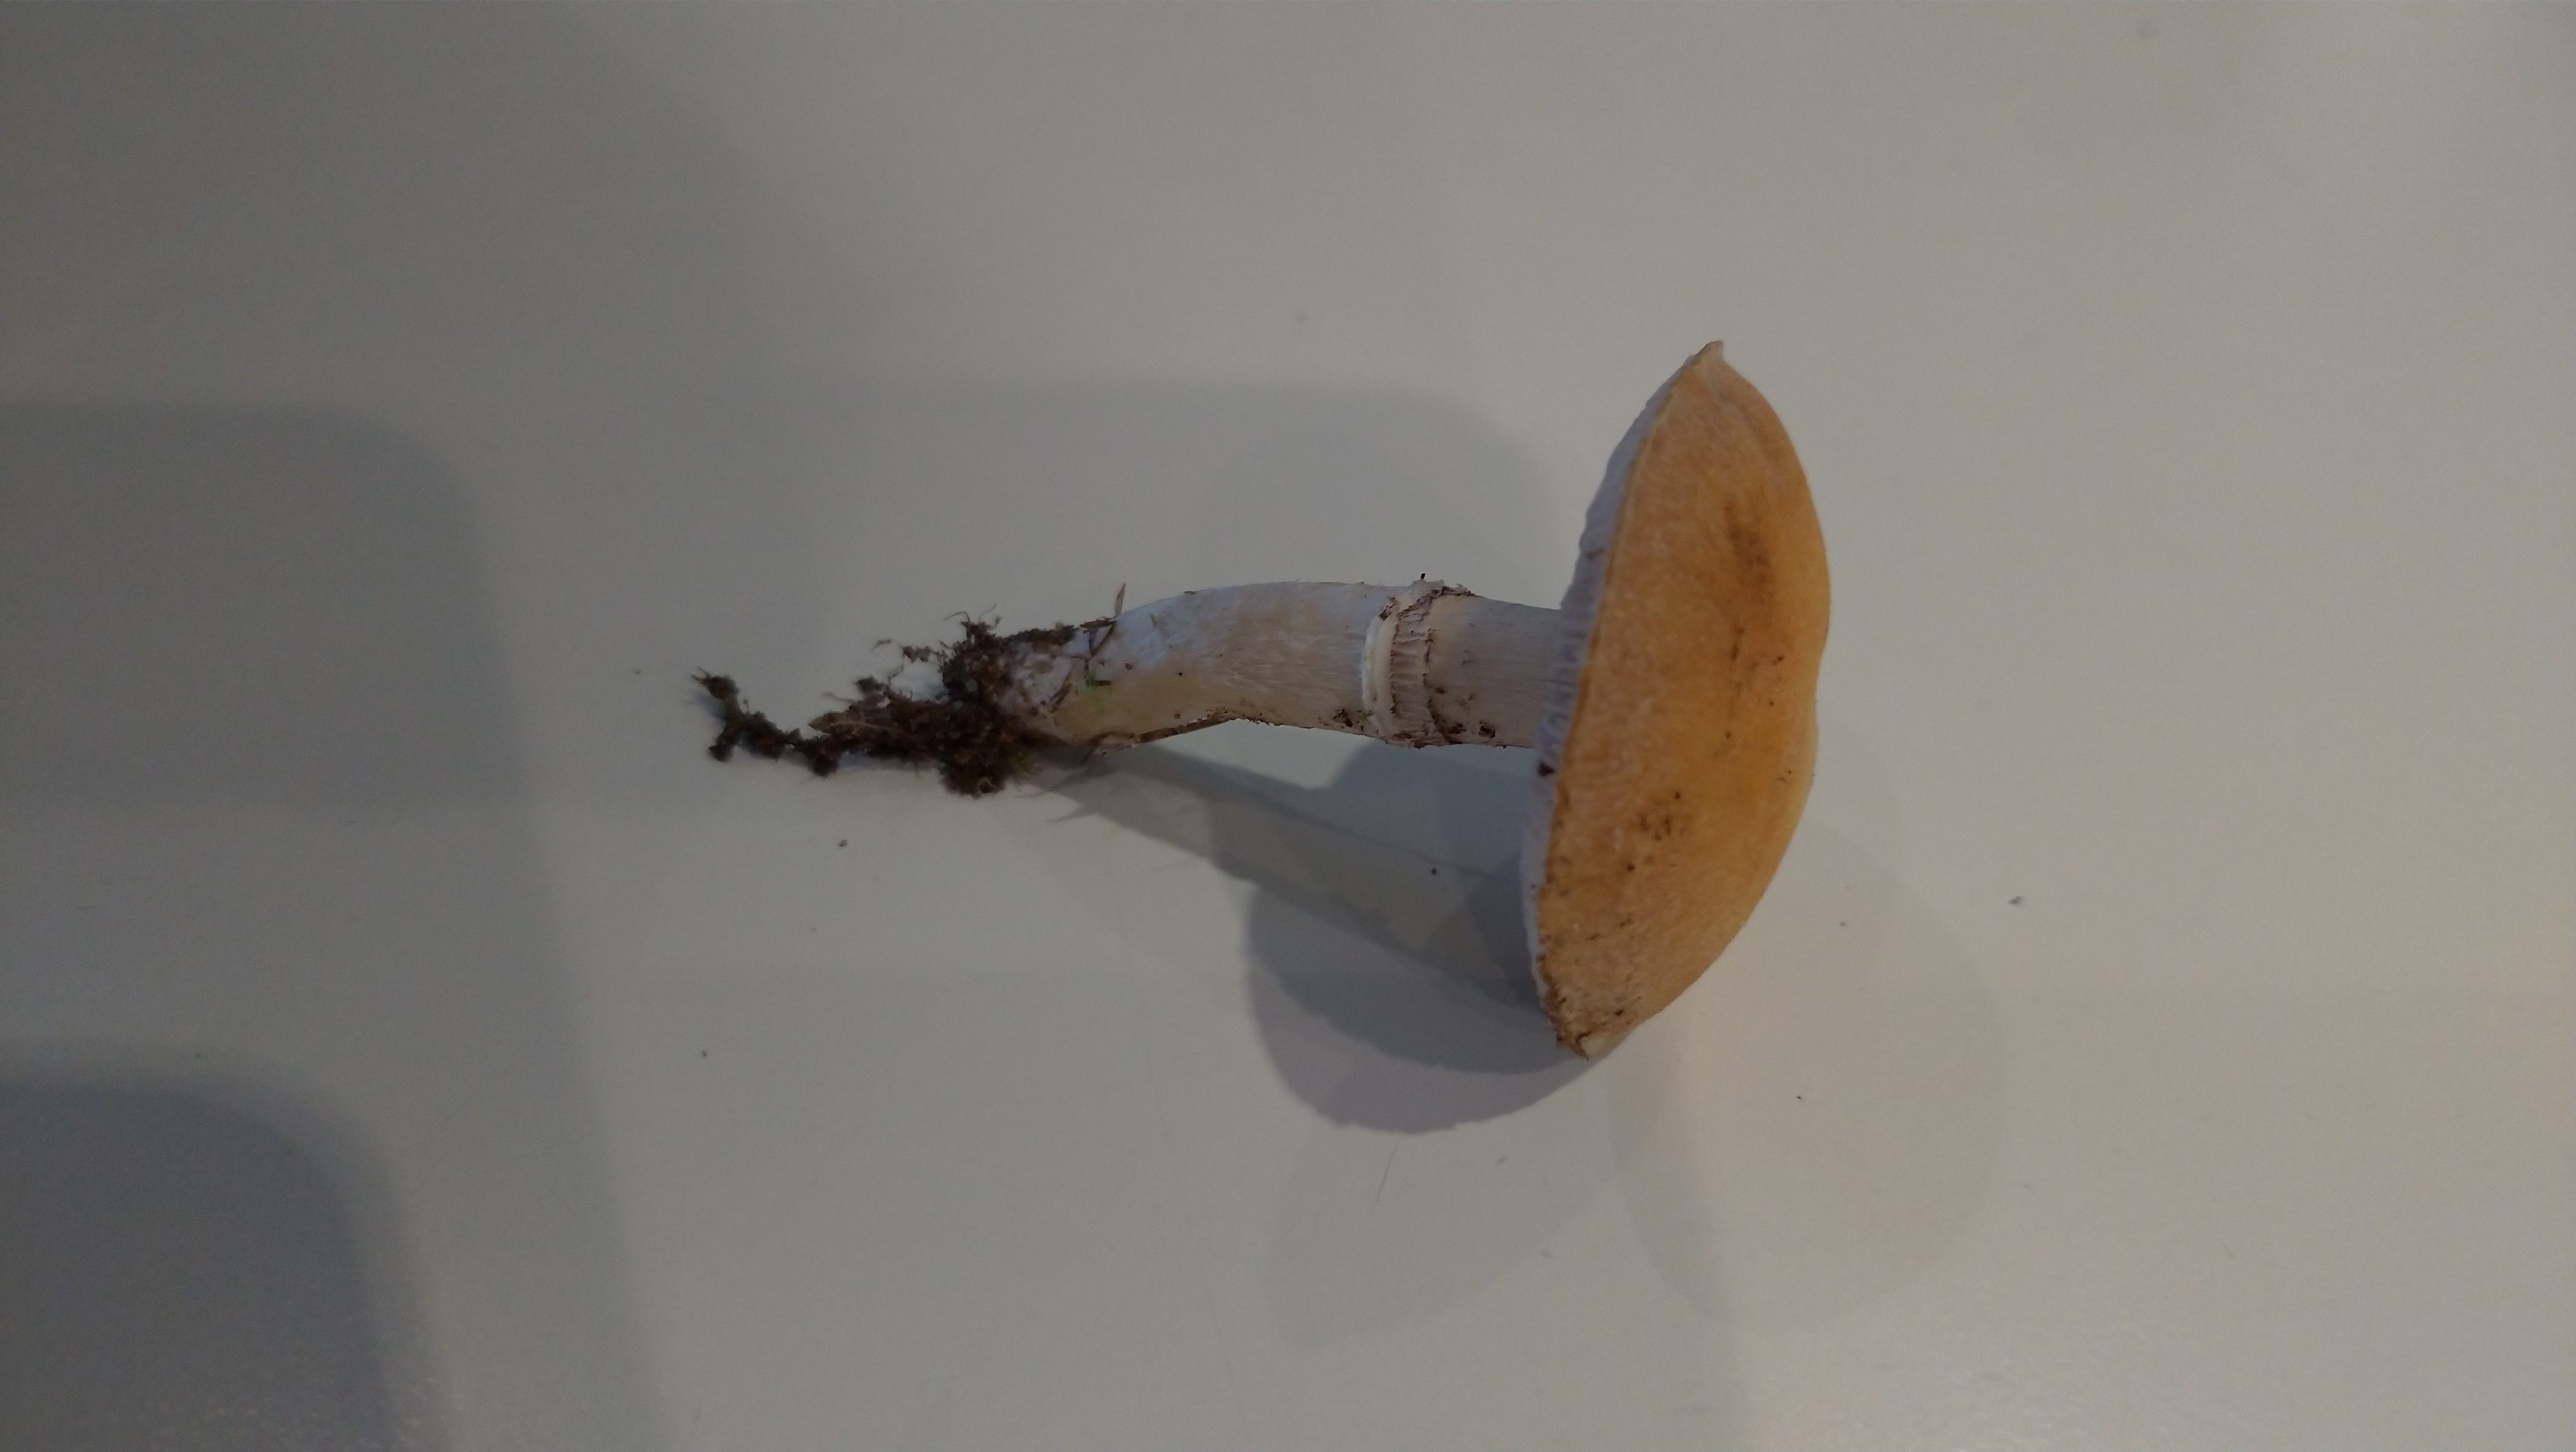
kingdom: Fungi
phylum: Basidiomycota
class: Agaricomycetes
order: Agaricales
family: Hymenogastraceae
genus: Psilocybe
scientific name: Psilocybe coronilla
